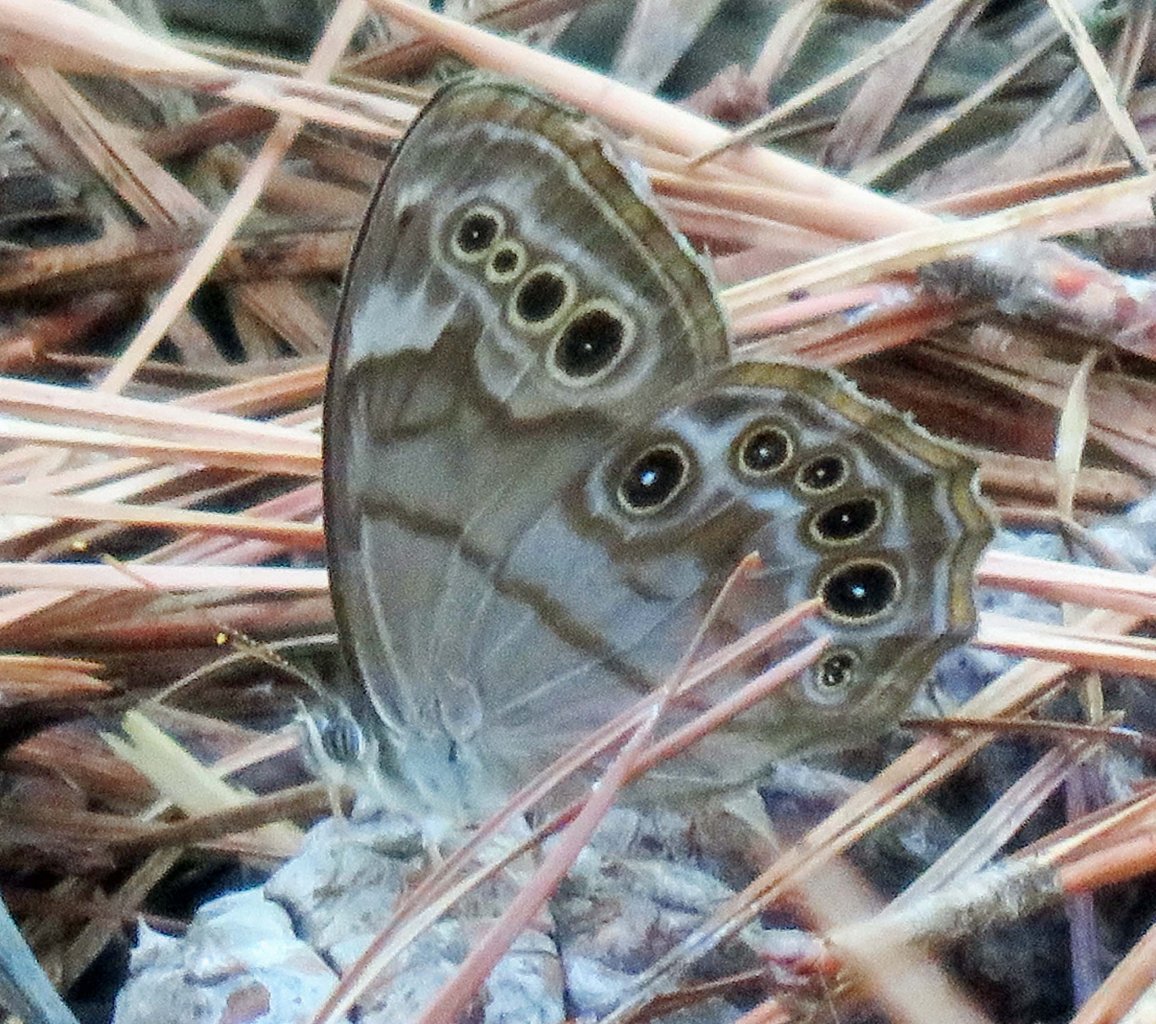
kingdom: Animalia
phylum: Arthropoda
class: Insecta
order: Lepidoptera
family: Nymphalidae
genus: Lethe
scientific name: Lethe anthedon
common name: Northern Pearly-Eye
